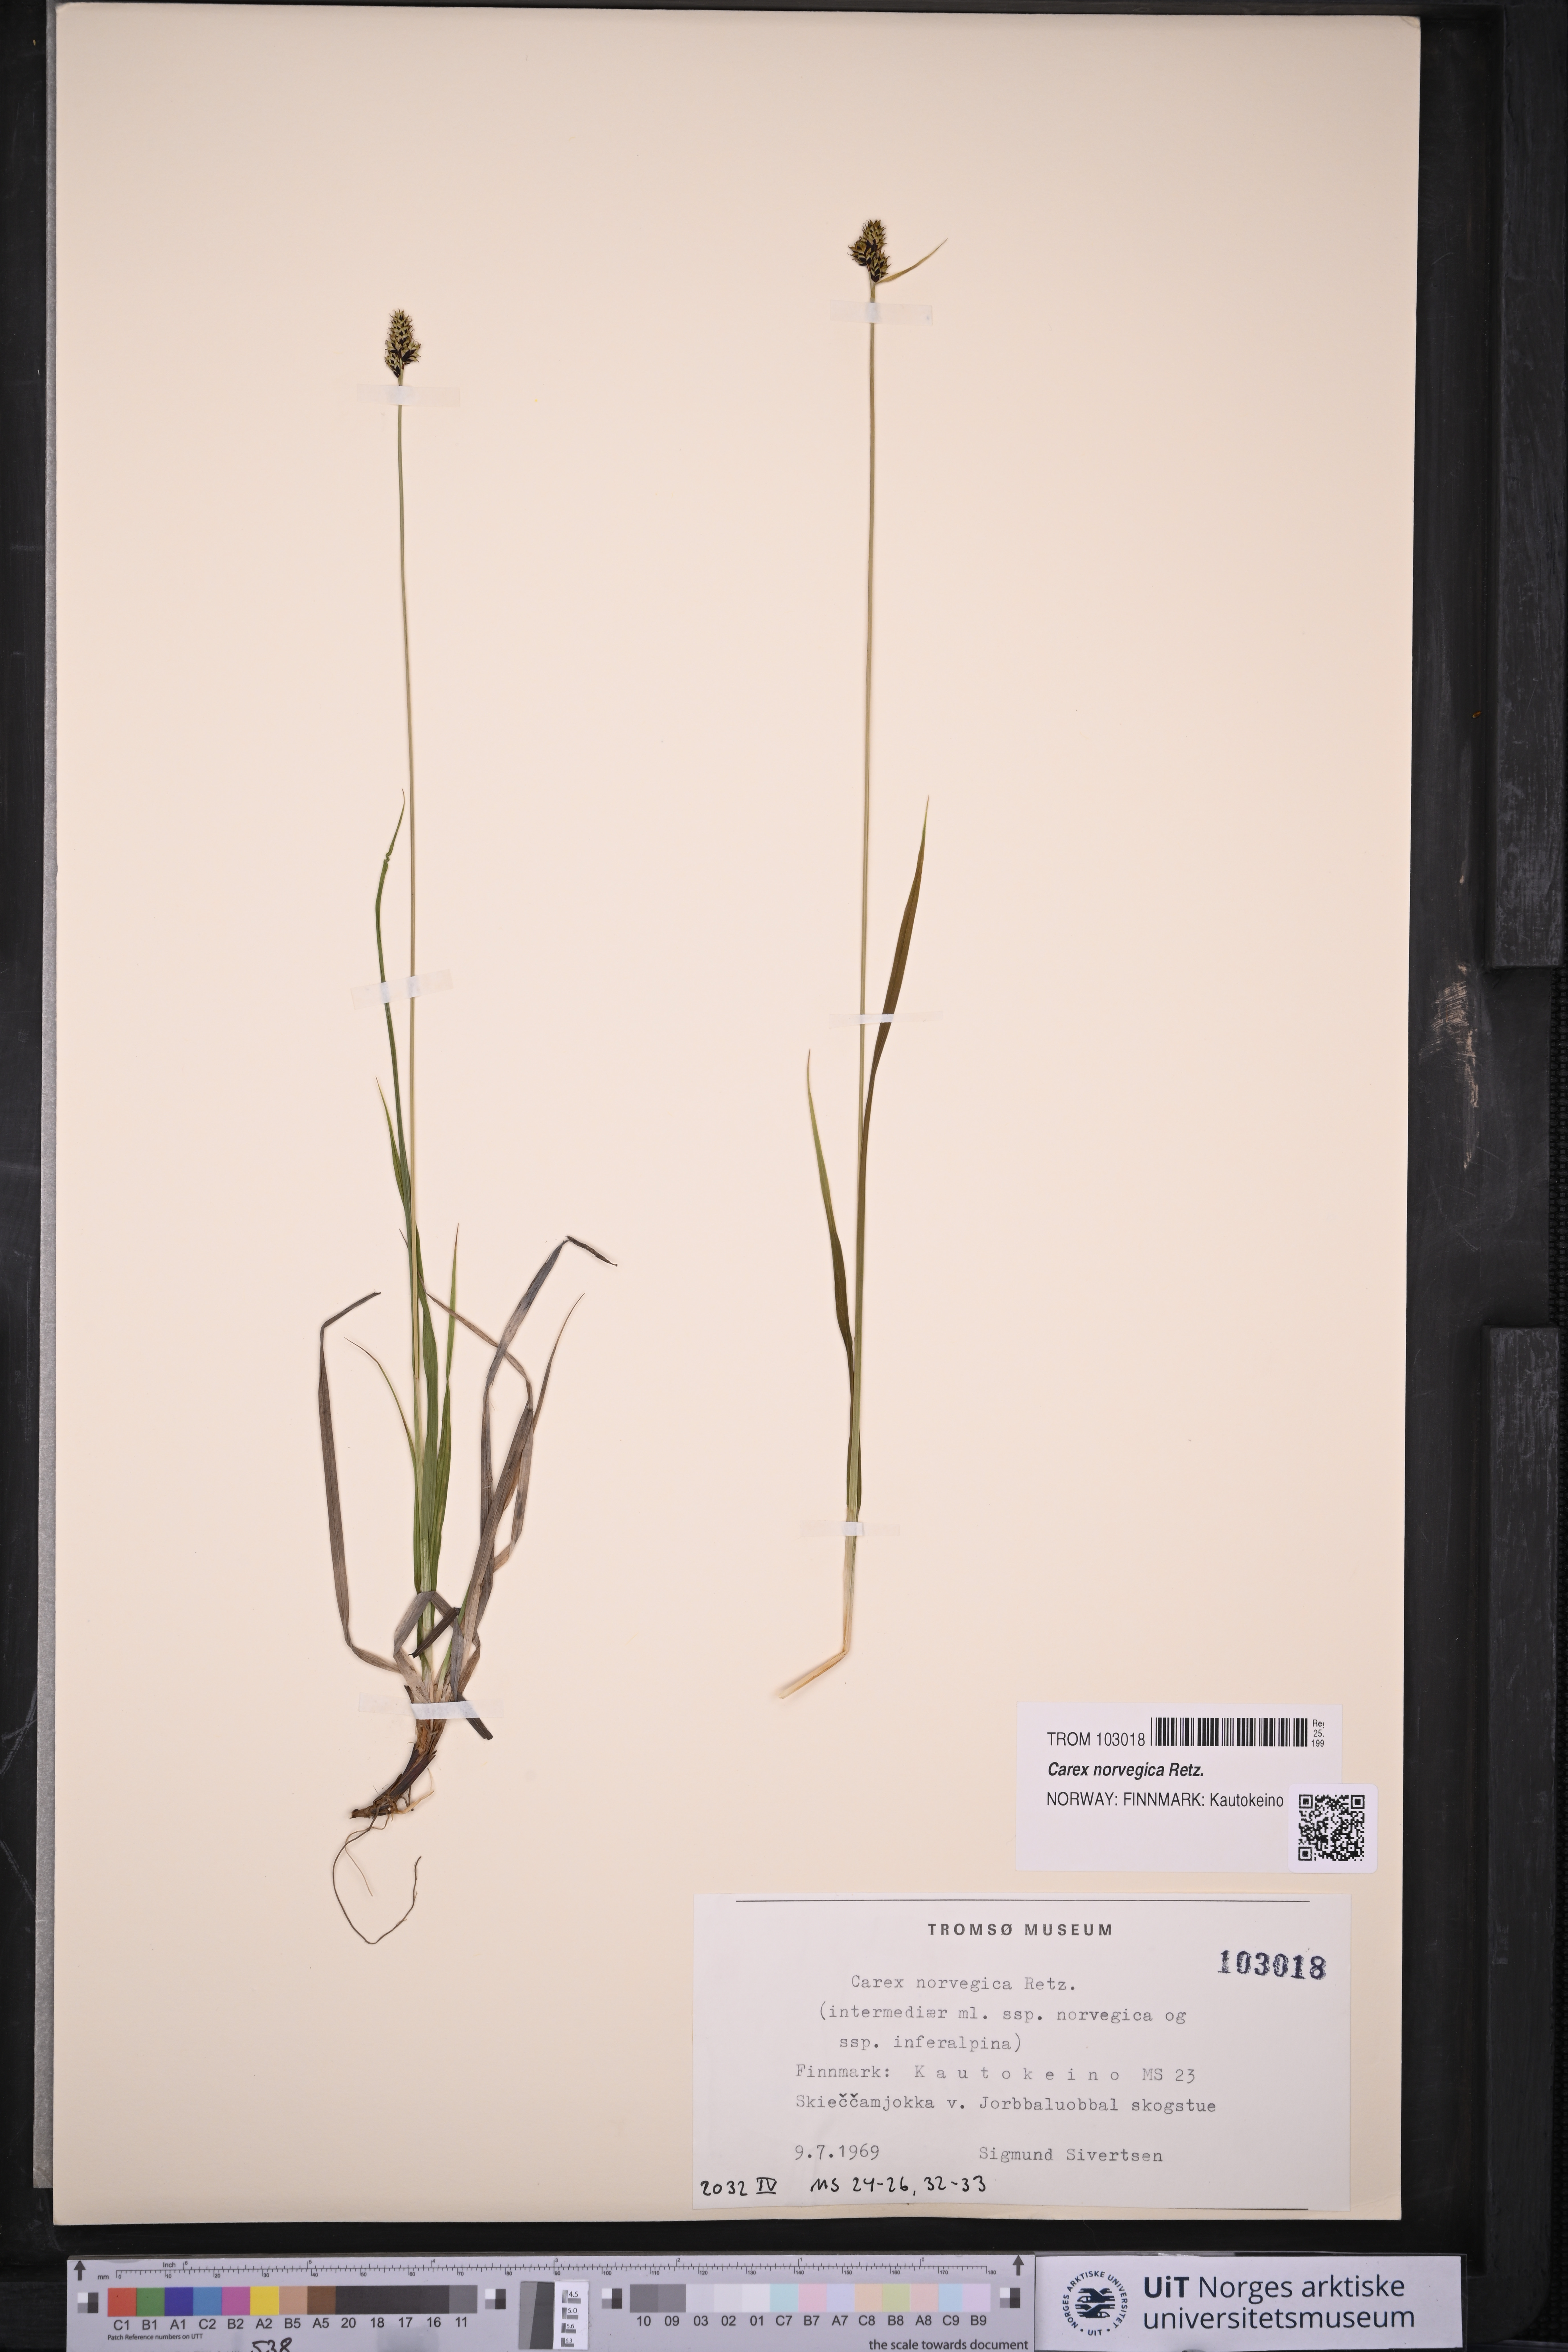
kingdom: Plantae
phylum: Tracheophyta
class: Liliopsida
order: Poales
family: Cyperaceae
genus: Carex
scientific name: Carex norvegica
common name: Close-headed alpine-sedge
